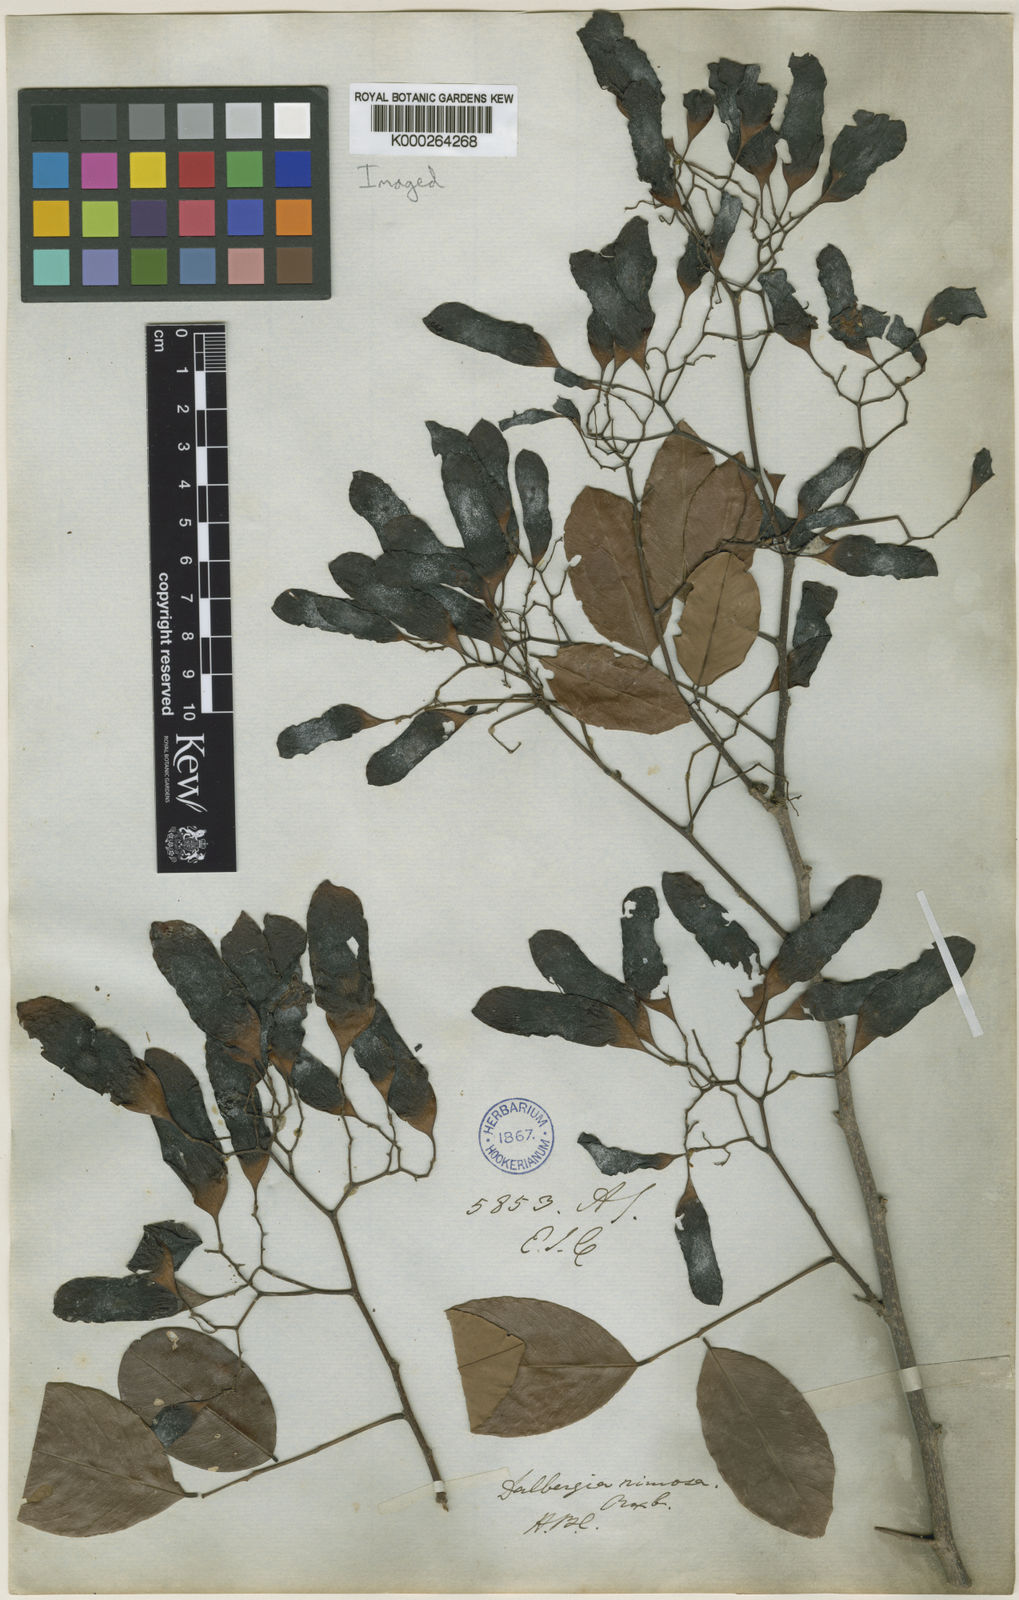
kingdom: Plantae
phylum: Tracheophyta
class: Magnoliopsida
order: Fabales
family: Fabaceae
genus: Dalbergia
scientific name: Dalbergia rimosa
